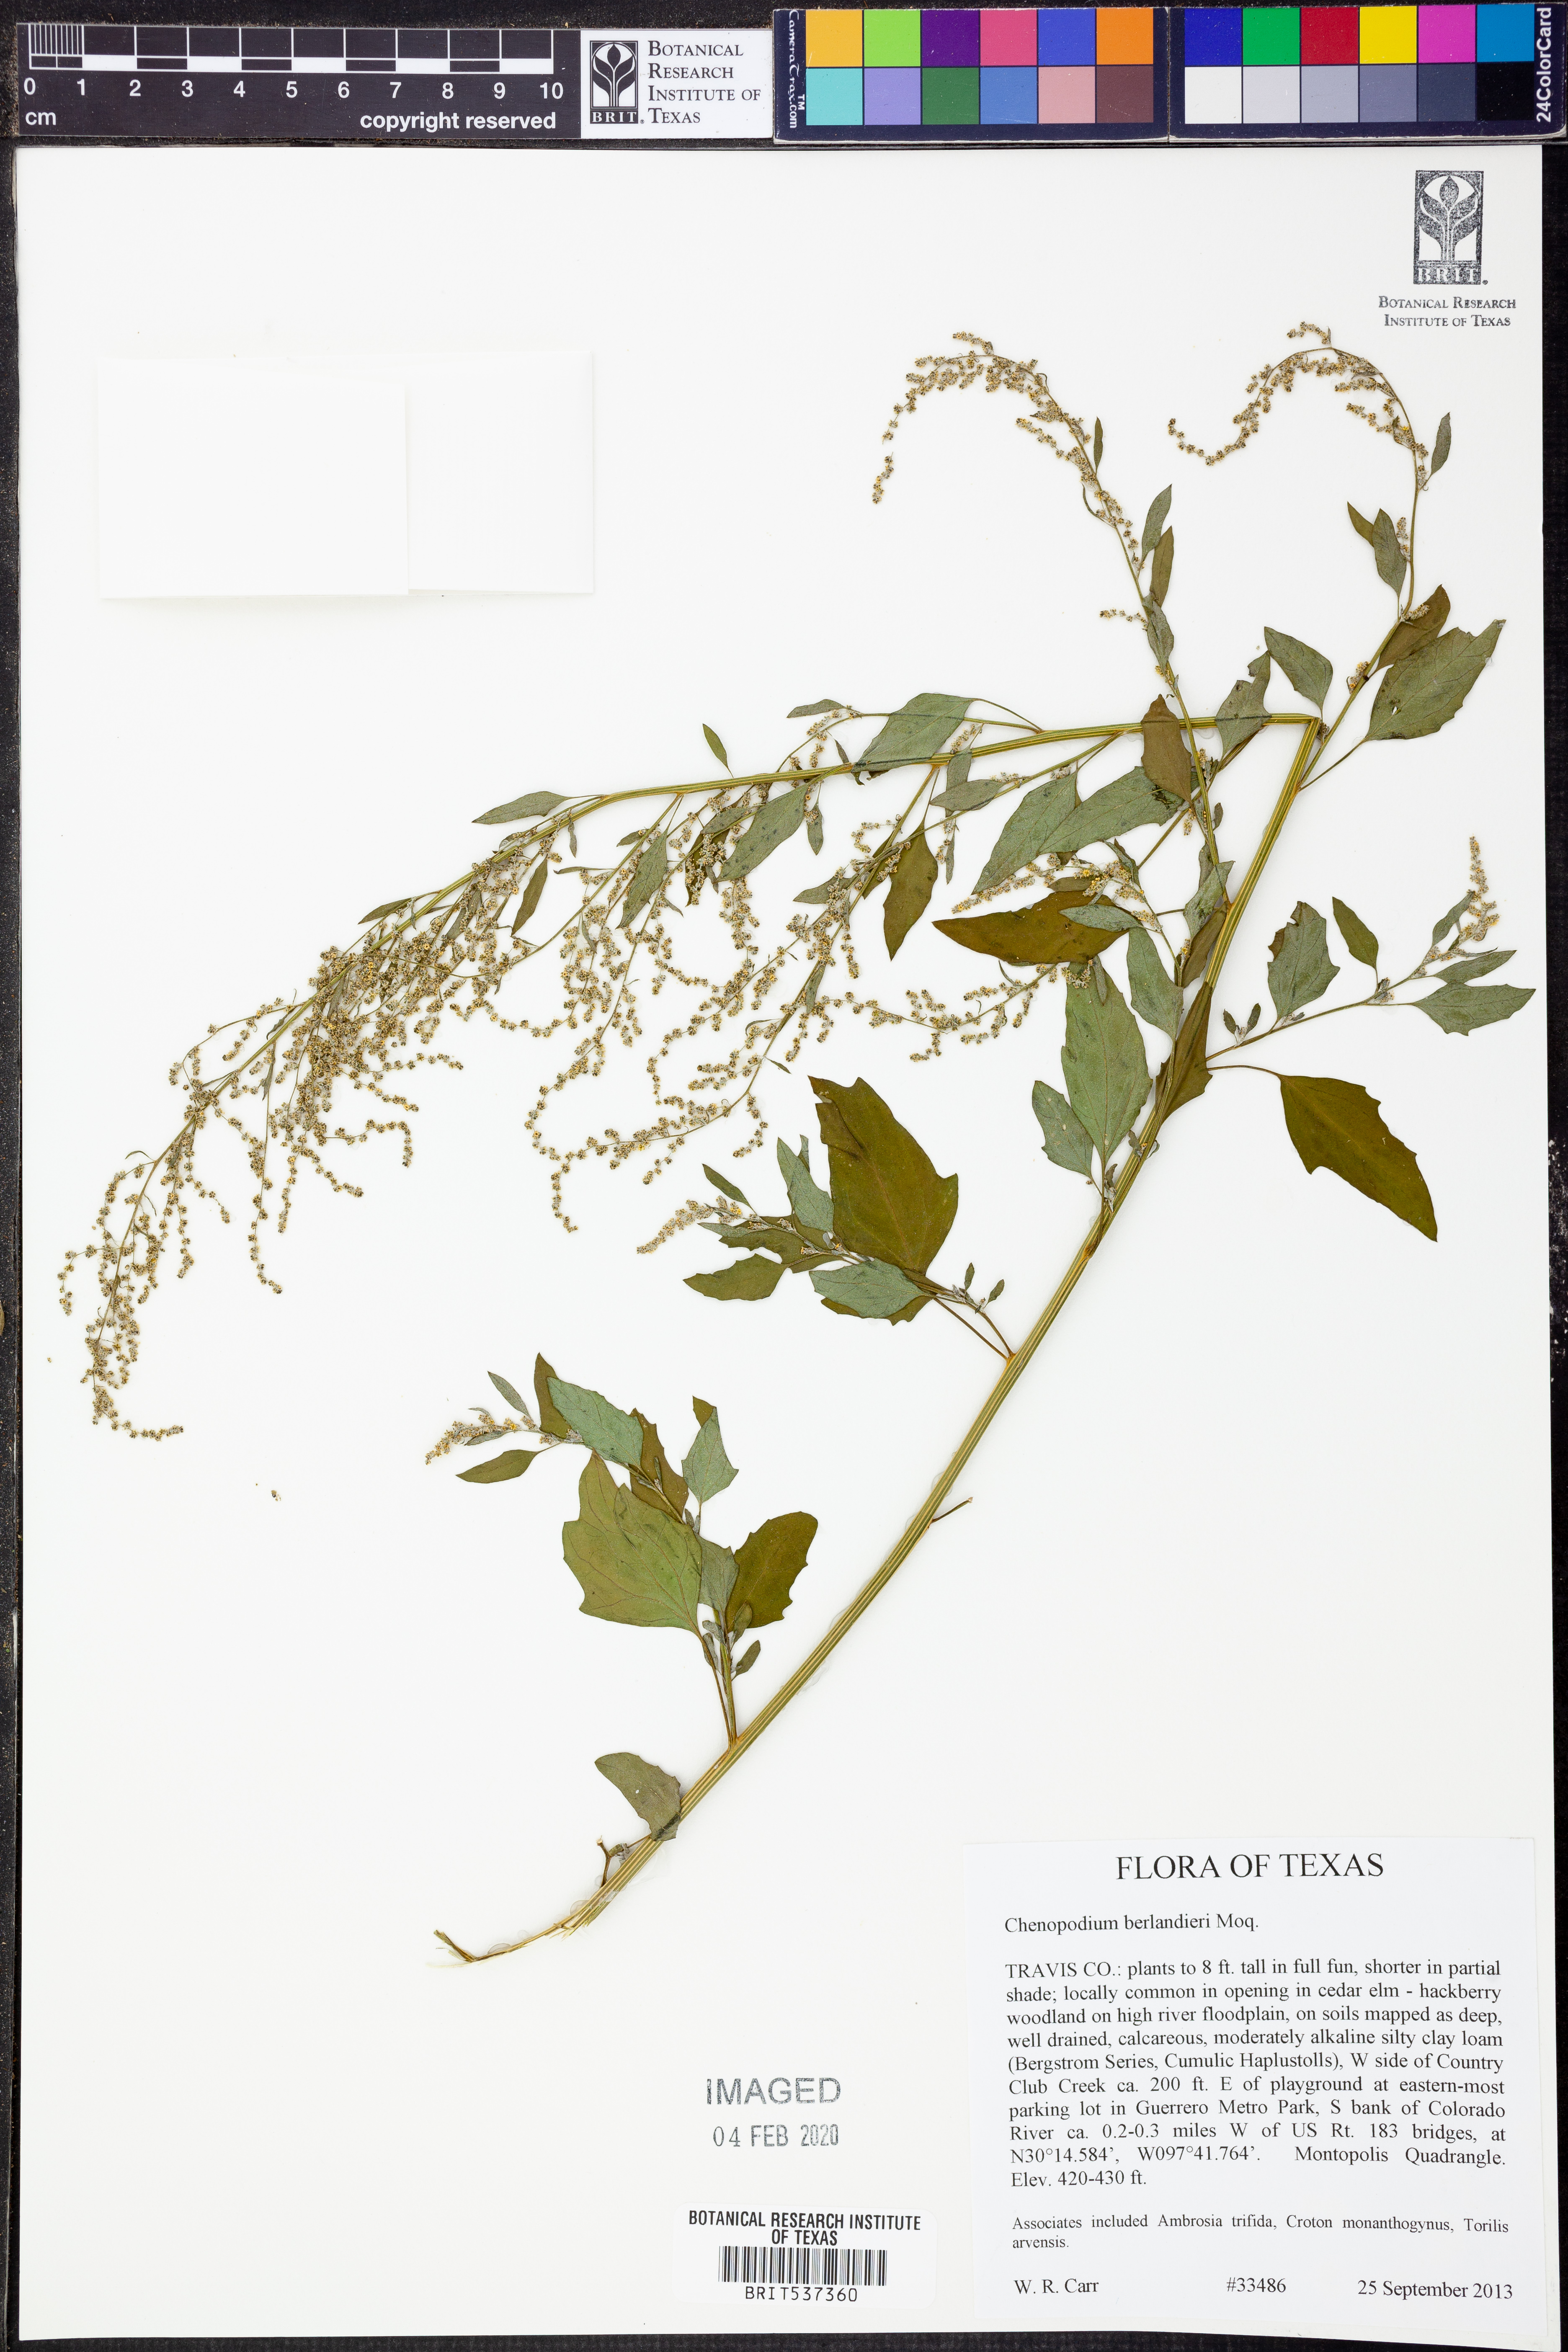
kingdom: Plantae
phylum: Tracheophyta
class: Magnoliopsida
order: Caryophyllales
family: Amaranthaceae
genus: Chenopodium
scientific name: Chenopodium berlandieri
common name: Pit-seed goosefoot
